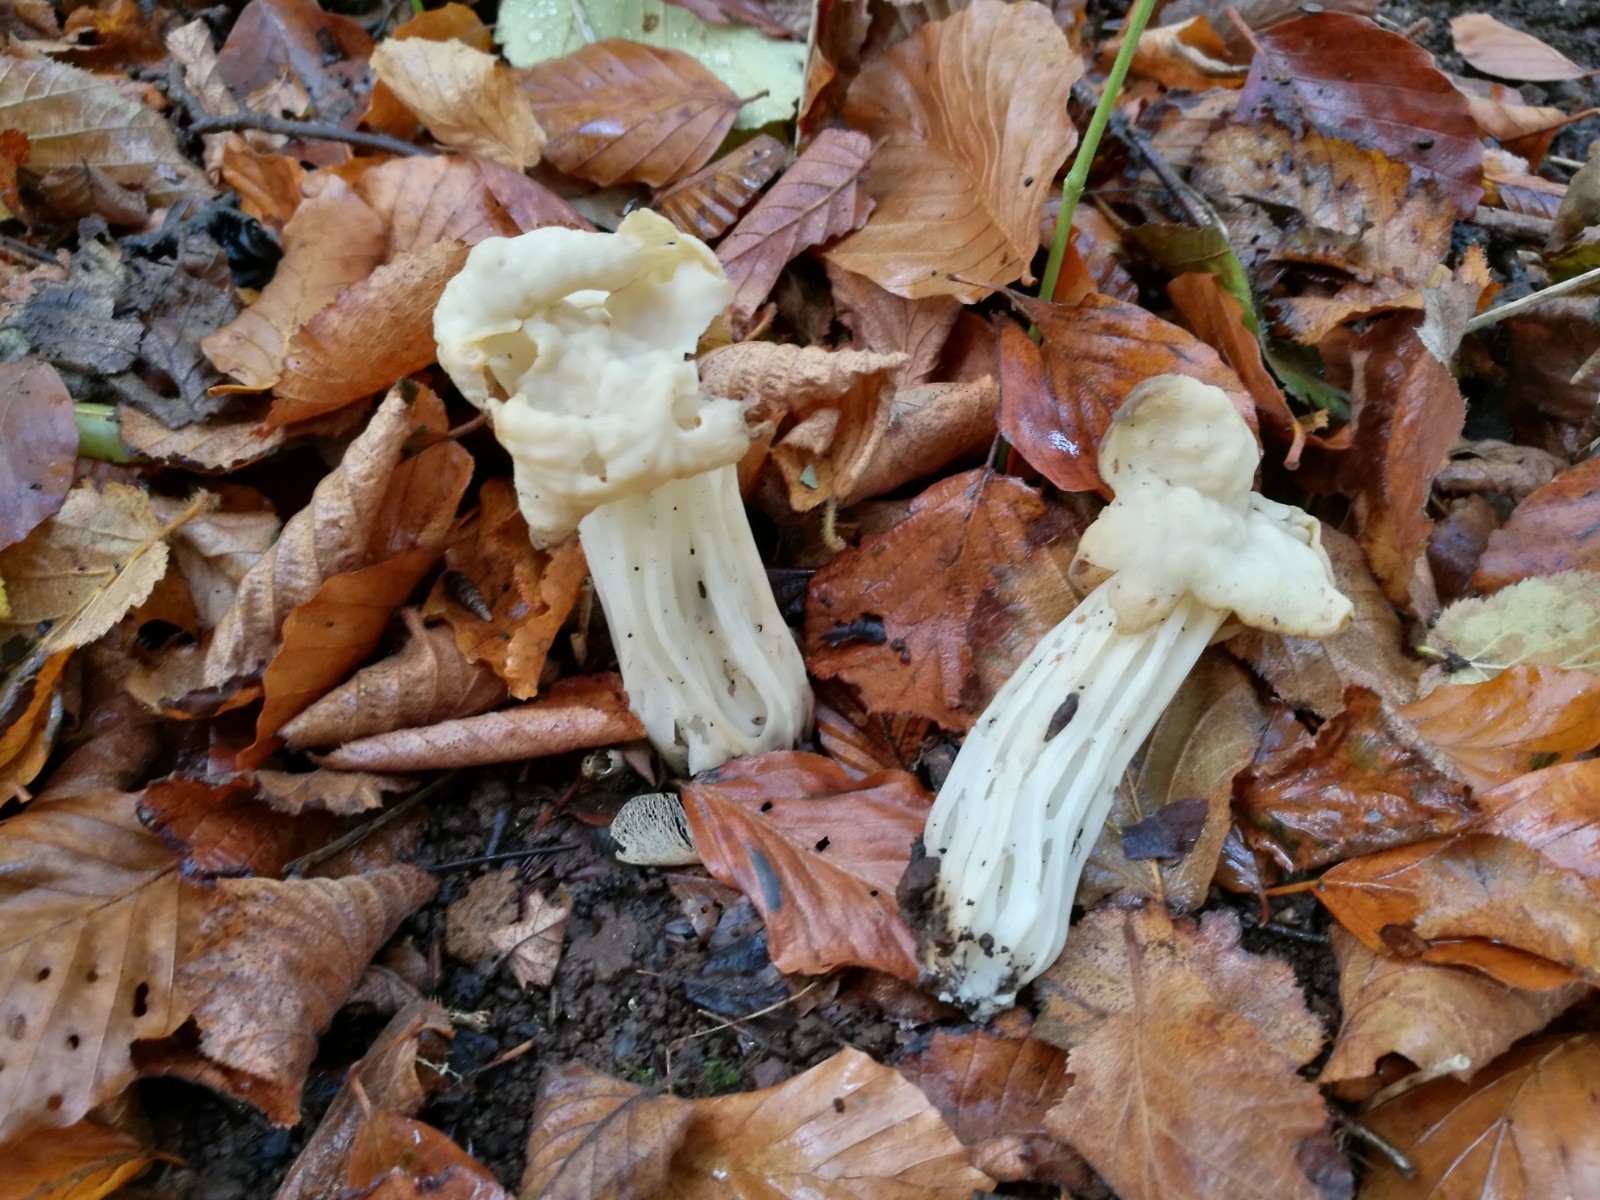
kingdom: Fungi
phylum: Ascomycota
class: Pezizomycetes
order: Pezizales
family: Helvellaceae
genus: Helvella
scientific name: Helvella crispa
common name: kruset foldhat
